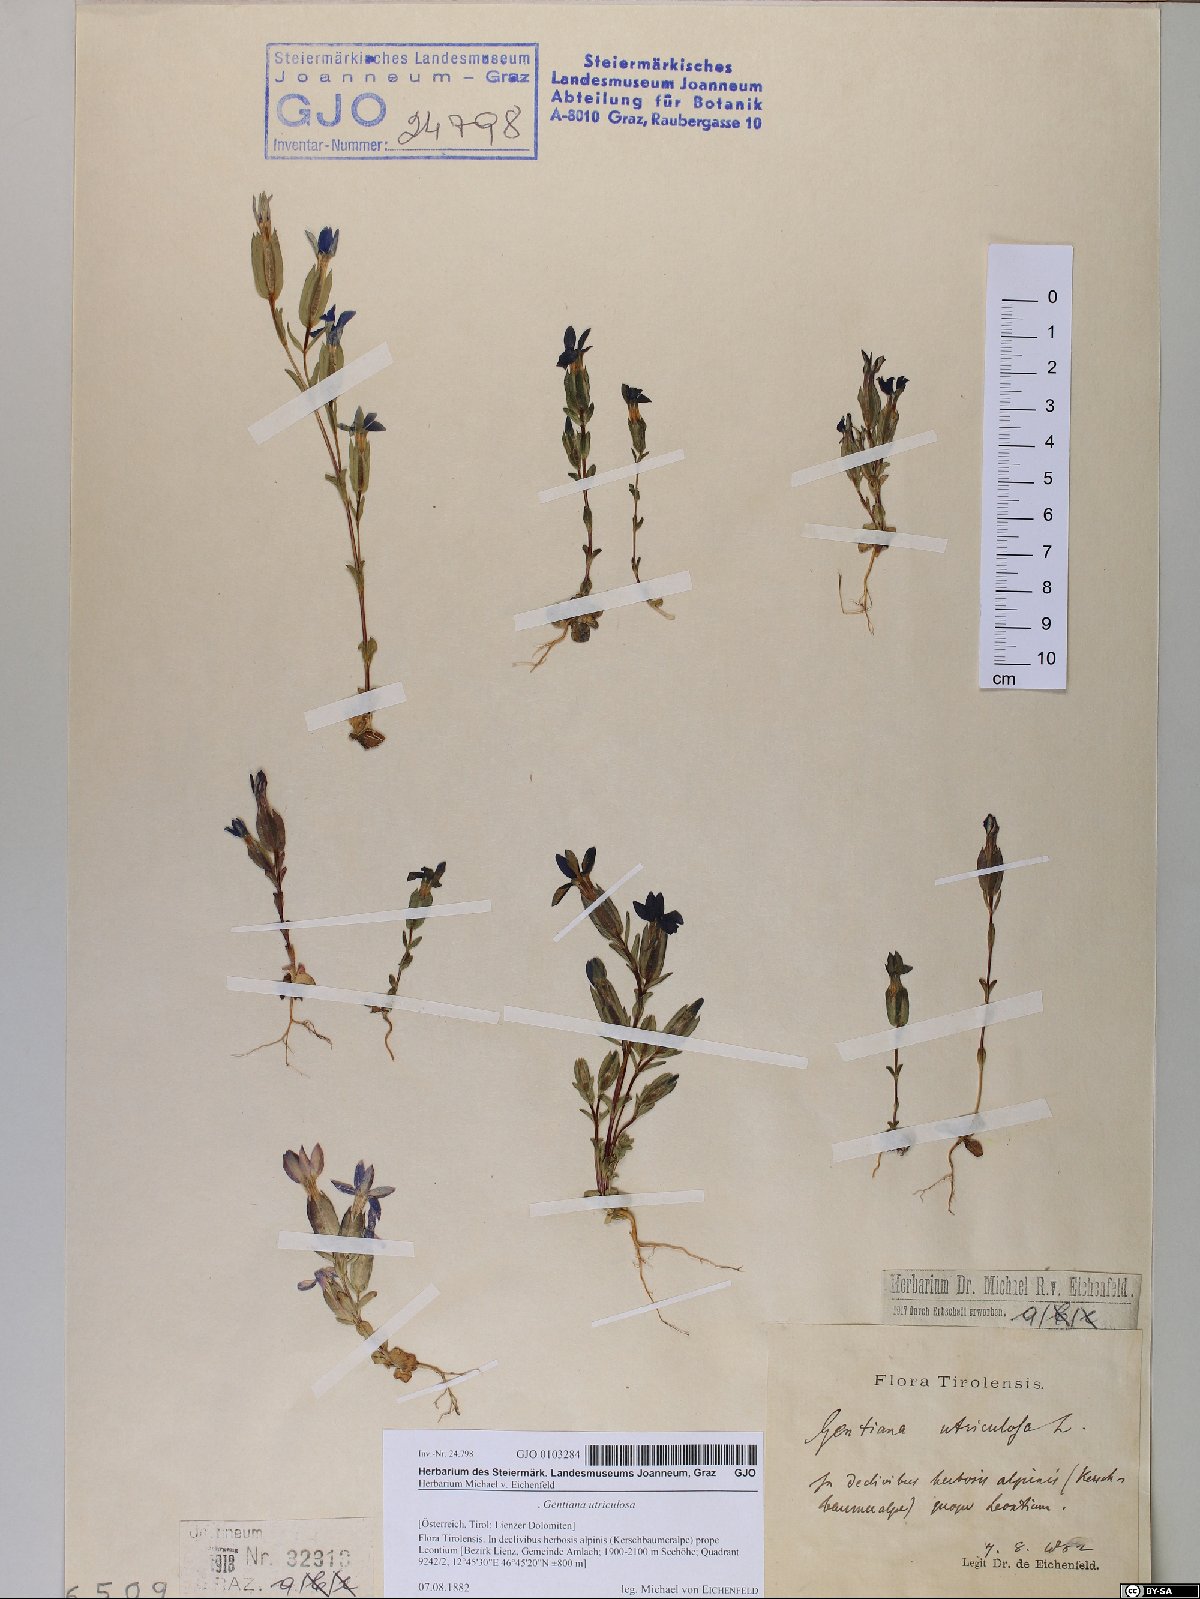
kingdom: Plantae
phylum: Tracheophyta
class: Magnoliopsida
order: Gentianales
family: Gentianaceae
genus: Gentiana
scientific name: Gentiana utriculosa
